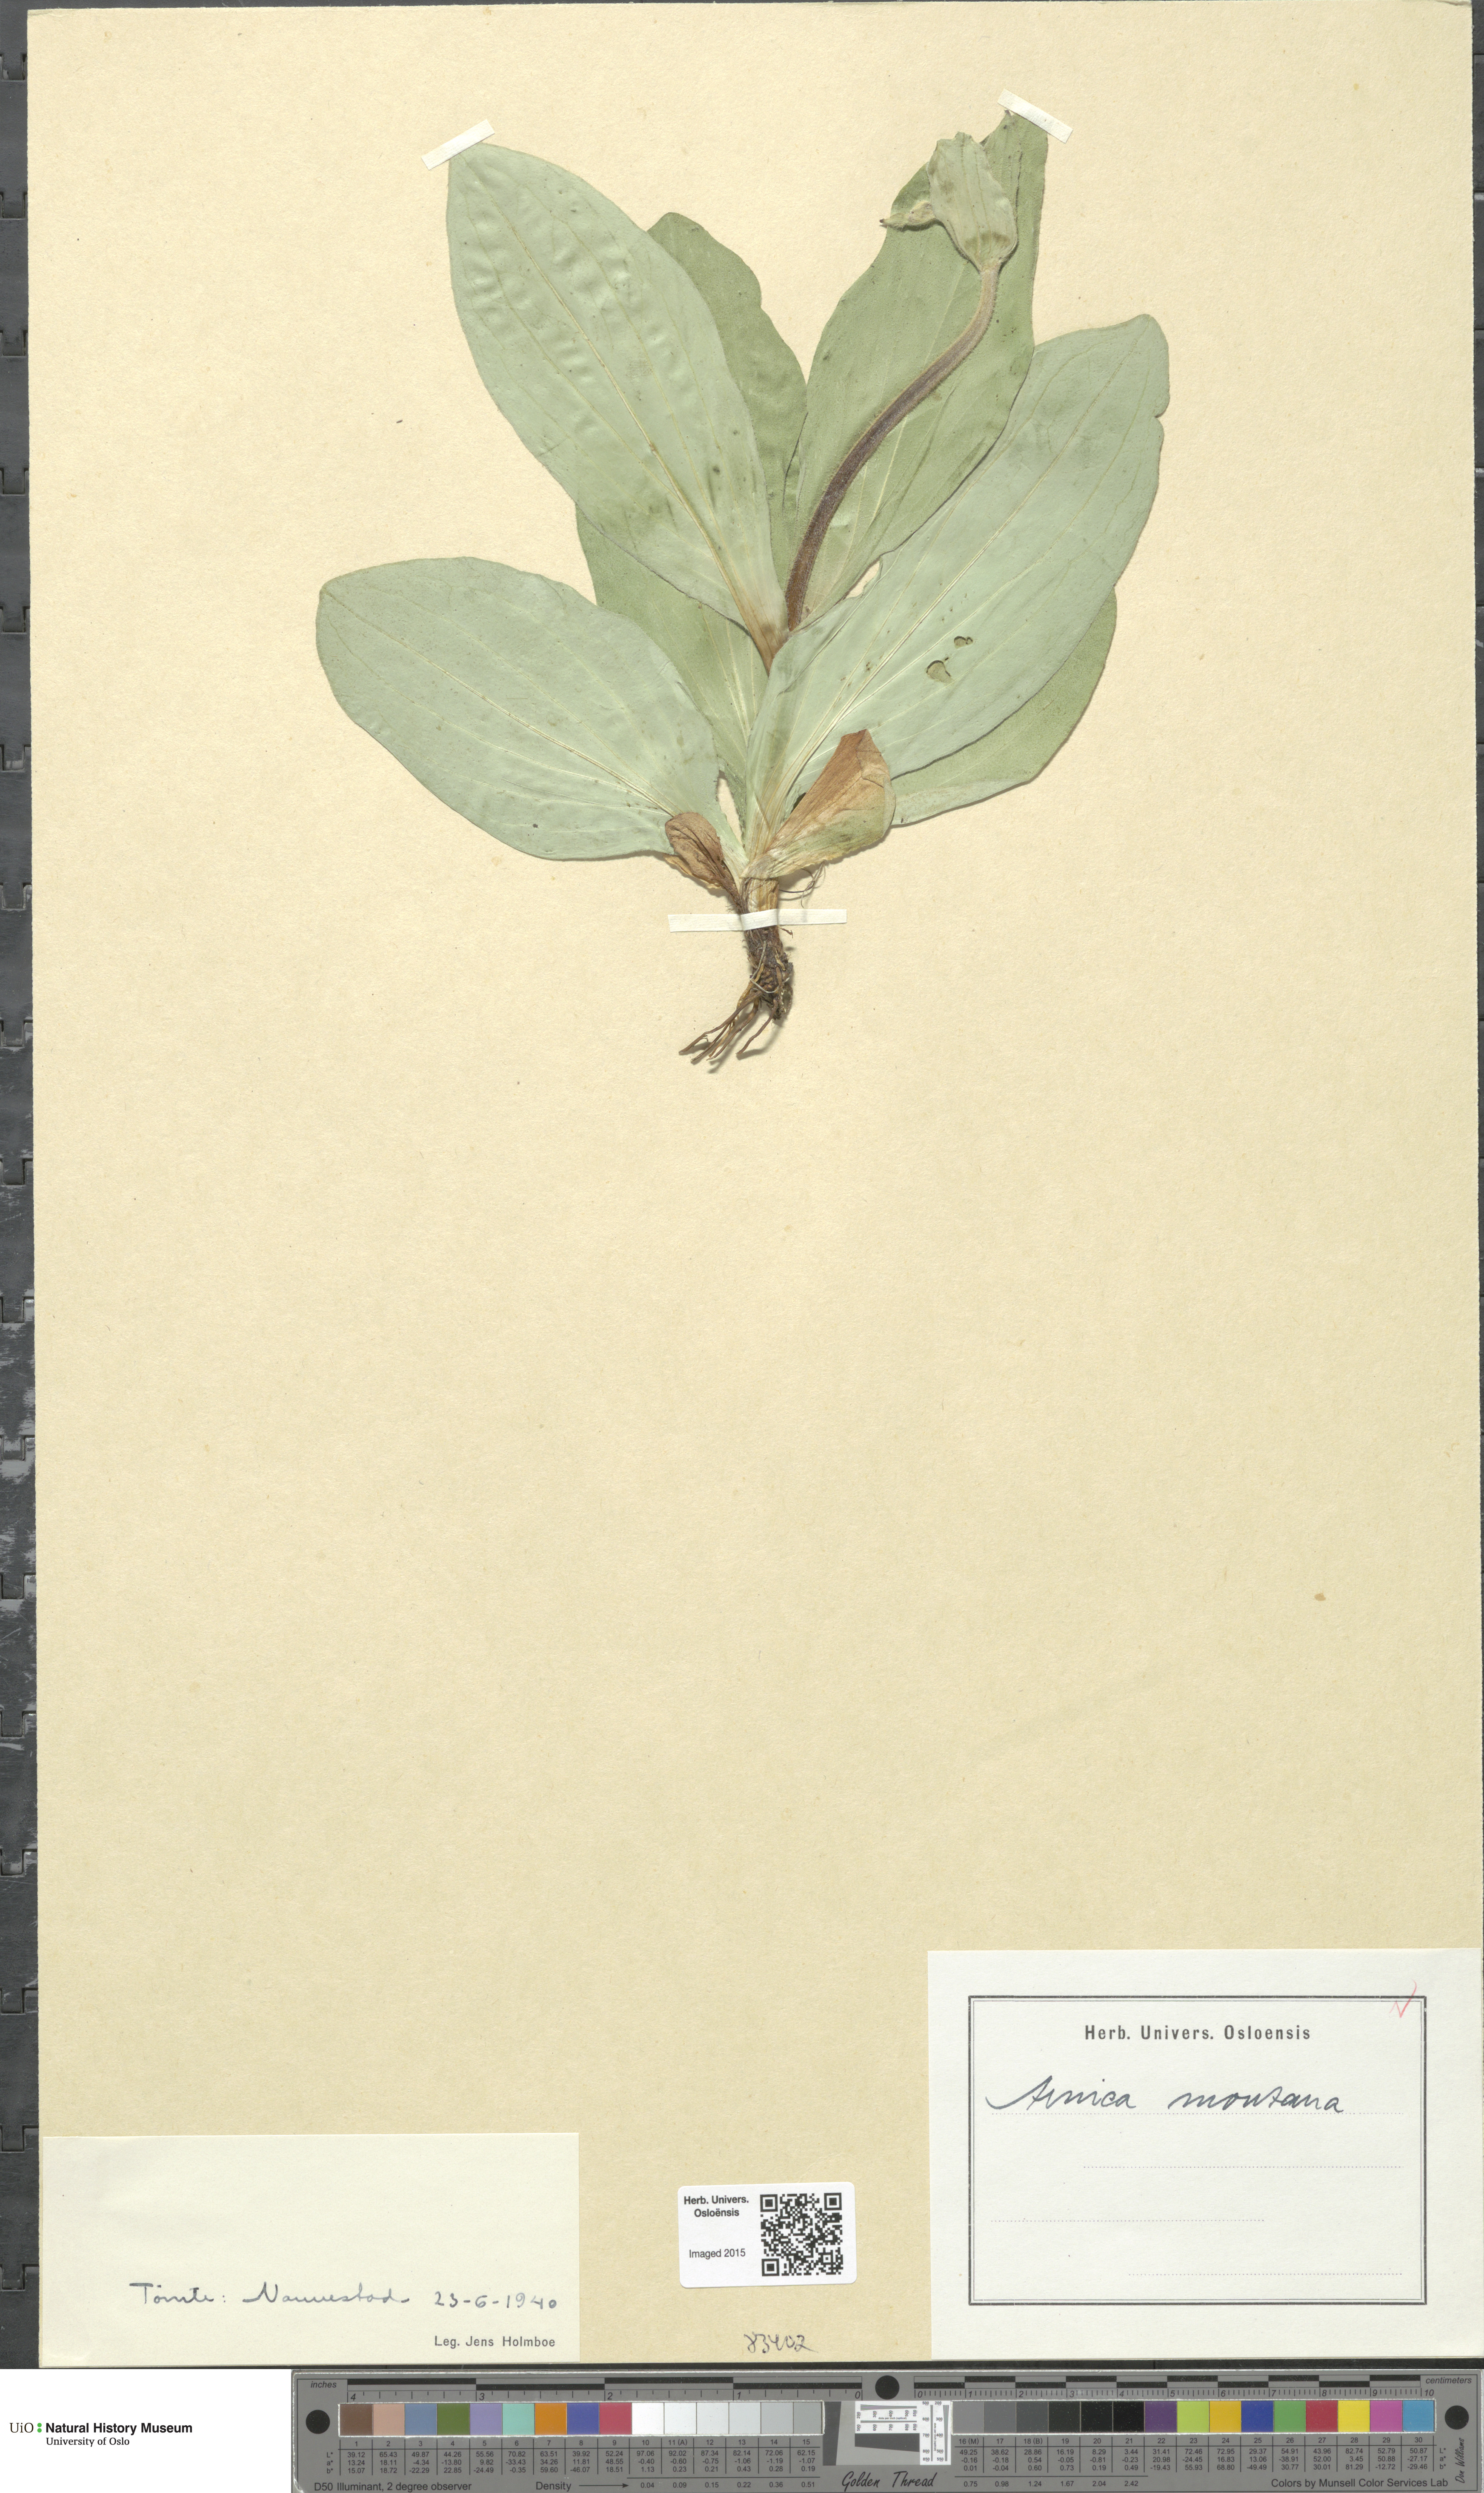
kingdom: Plantae
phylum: Tracheophyta
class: Magnoliopsida
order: Asterales
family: Asteraceae
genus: Arnica
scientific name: Arnica montana
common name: Leopard's bane
